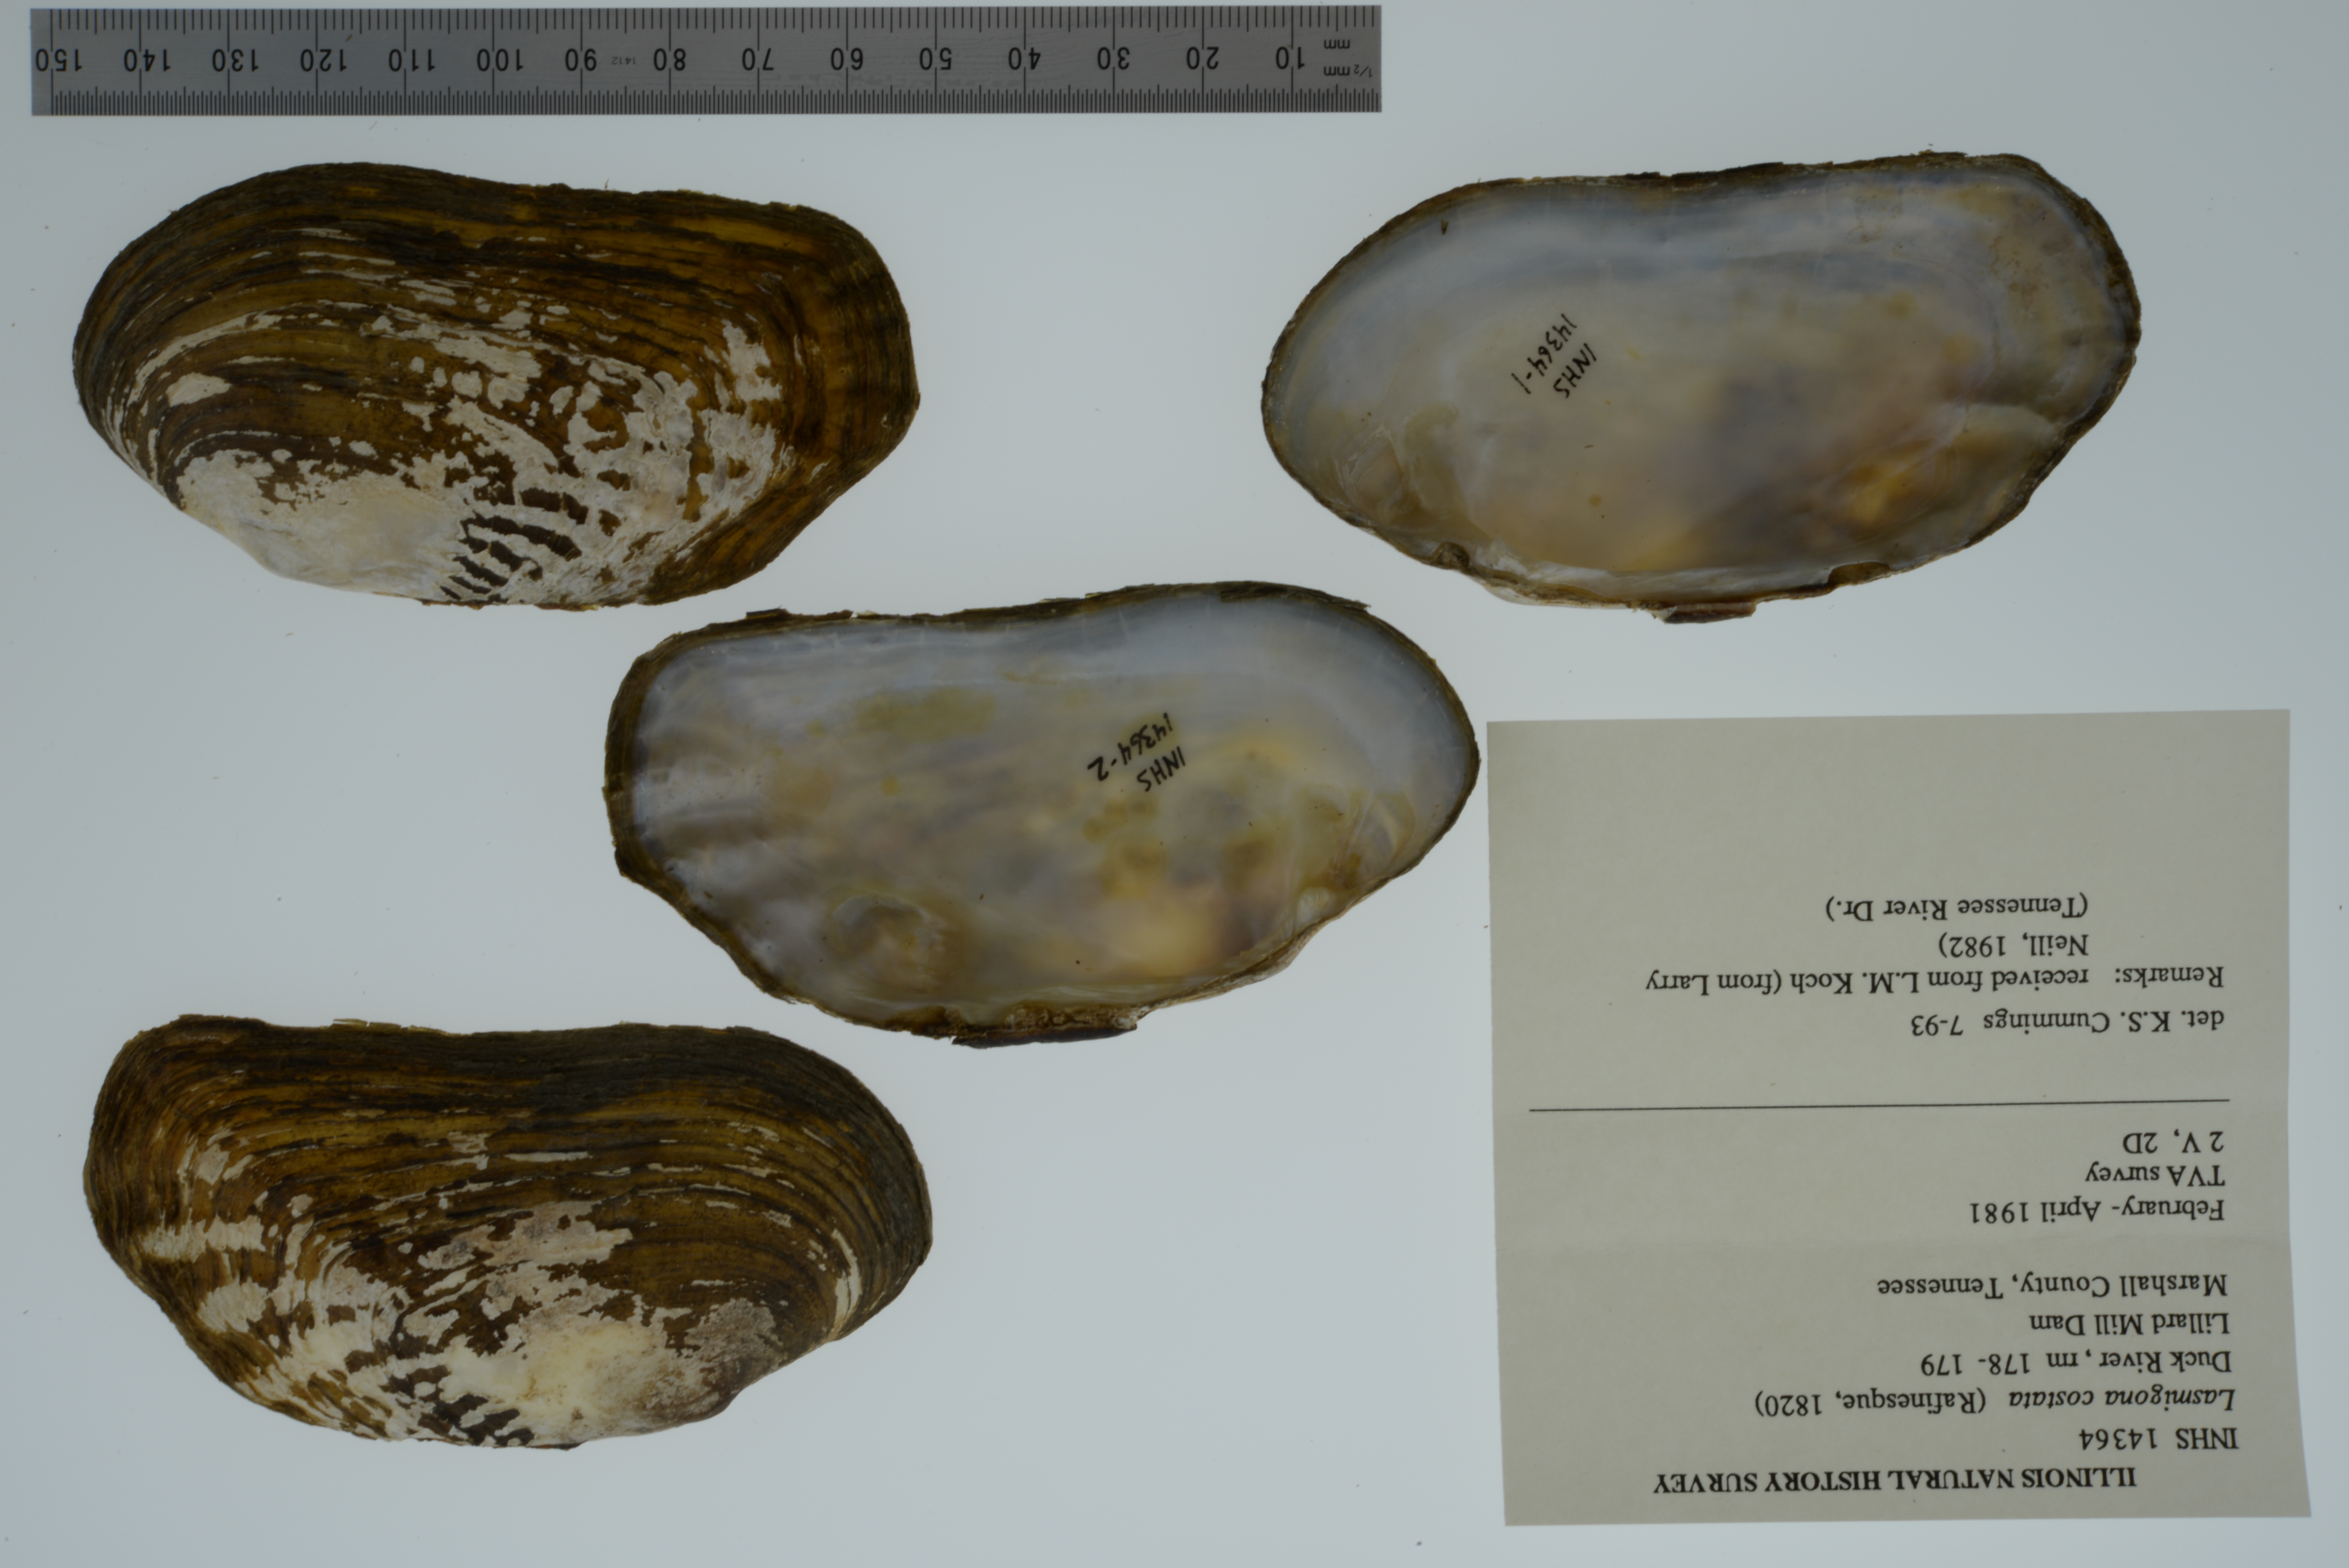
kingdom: Animalia
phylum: Mollusca
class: Bivalvia
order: Unionida
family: Unionidae
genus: Lasmigona
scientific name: Lasmigona costata
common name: Flutedshell
